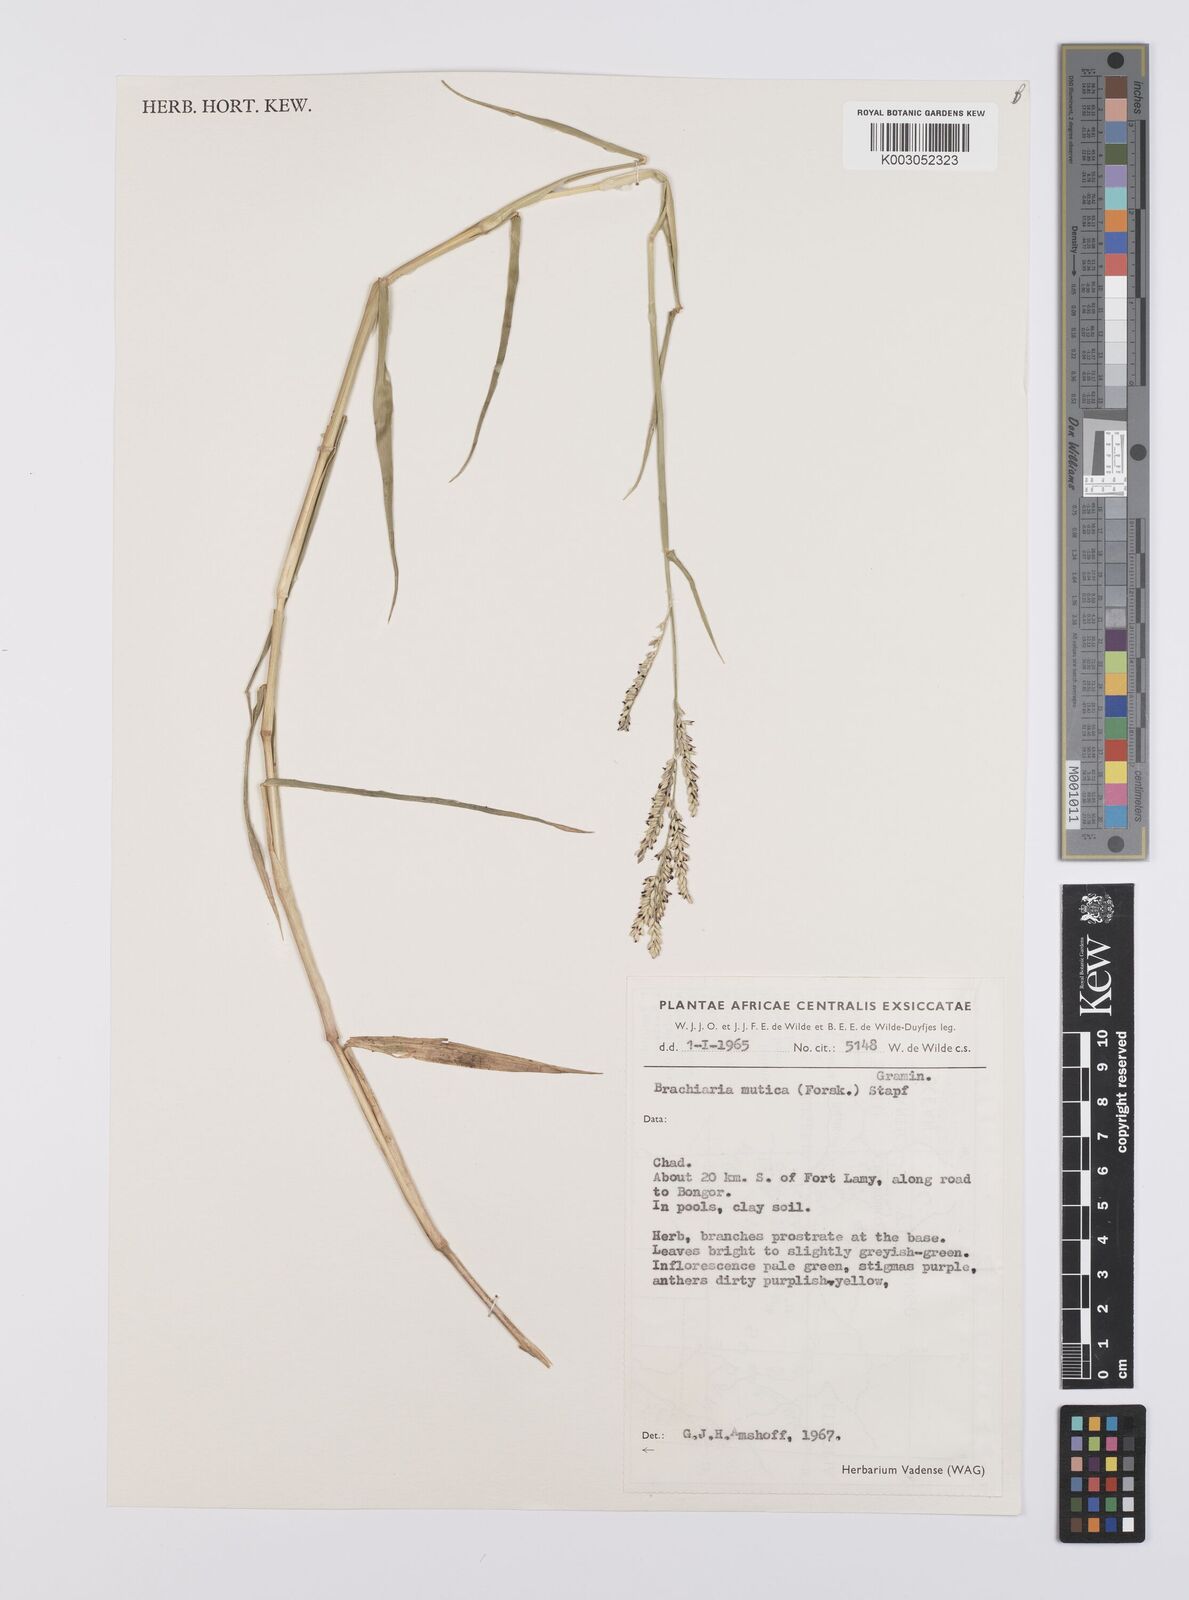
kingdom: Plantae
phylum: Tracheophyta
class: Liliopsida
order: Poales
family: Poaceae
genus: Urochloa
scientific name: Urochloa mutica
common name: Para grass
